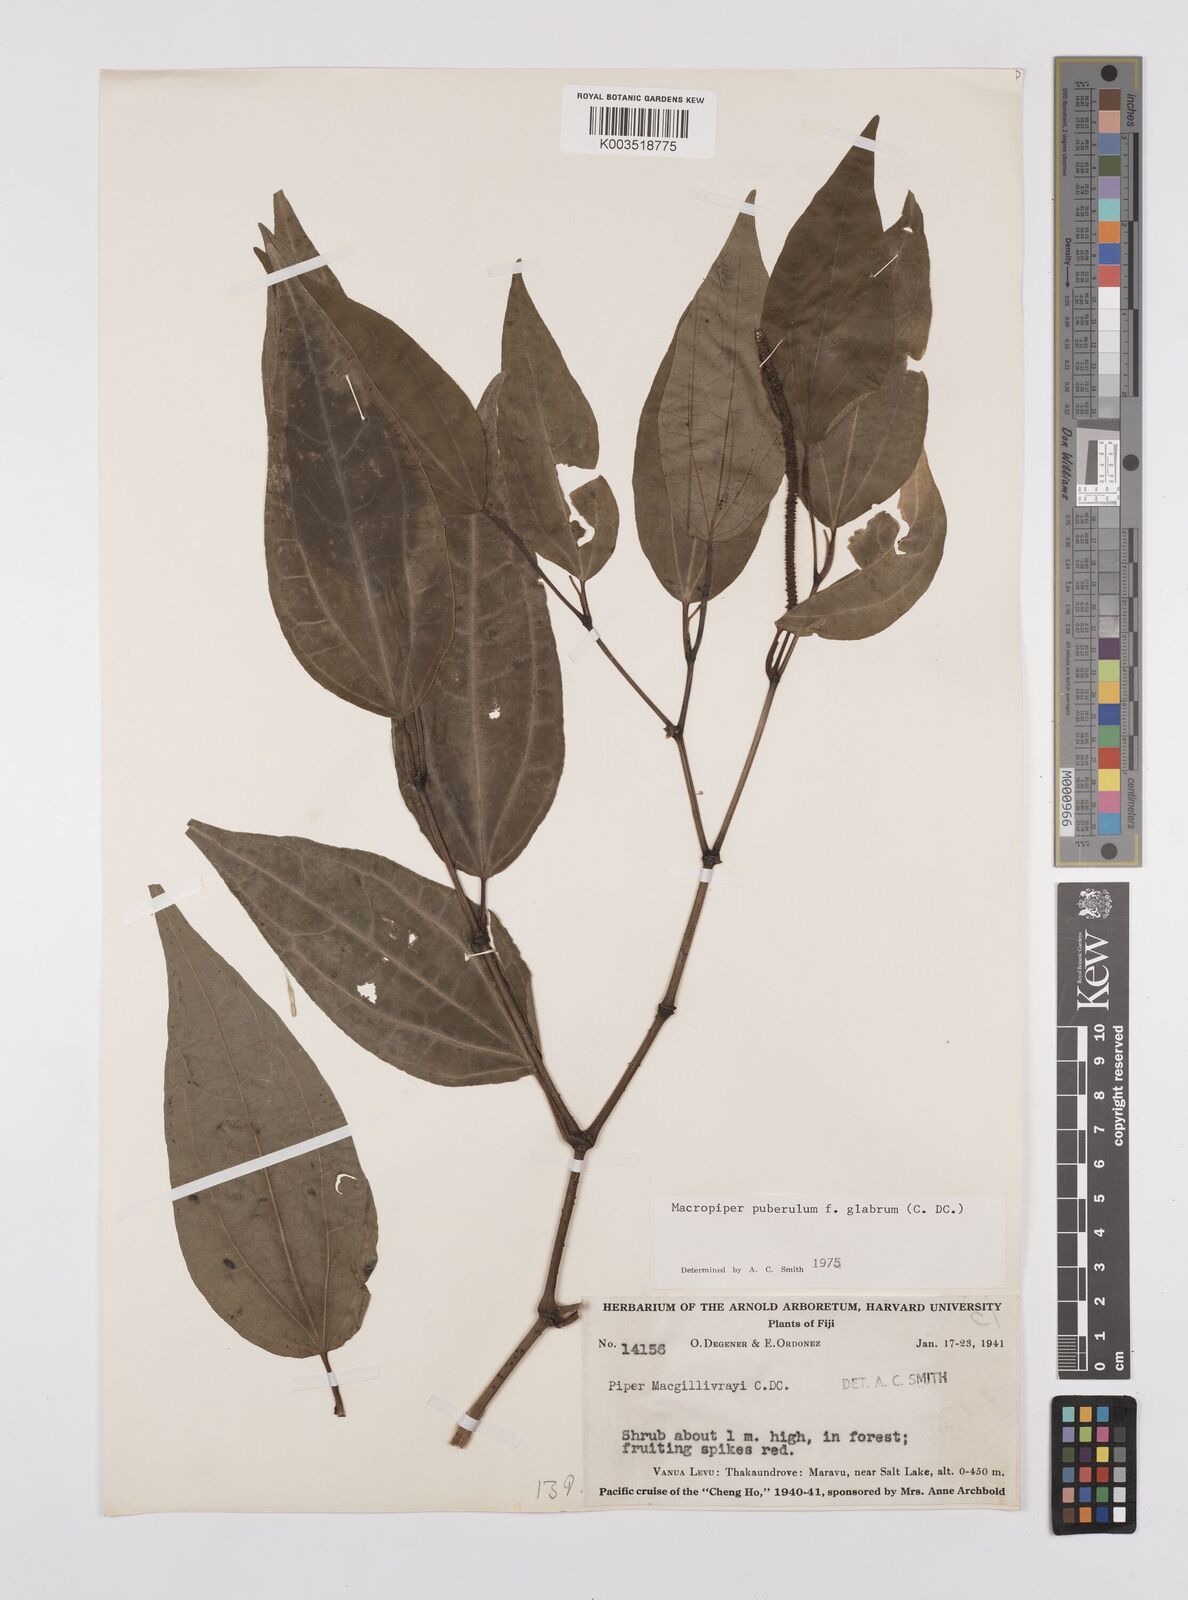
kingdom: Plantae
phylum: Tracheophyta
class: Magnoliopsida
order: Piperales
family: Piperaceae
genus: Macropiper
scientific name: Macropiper puberulum
